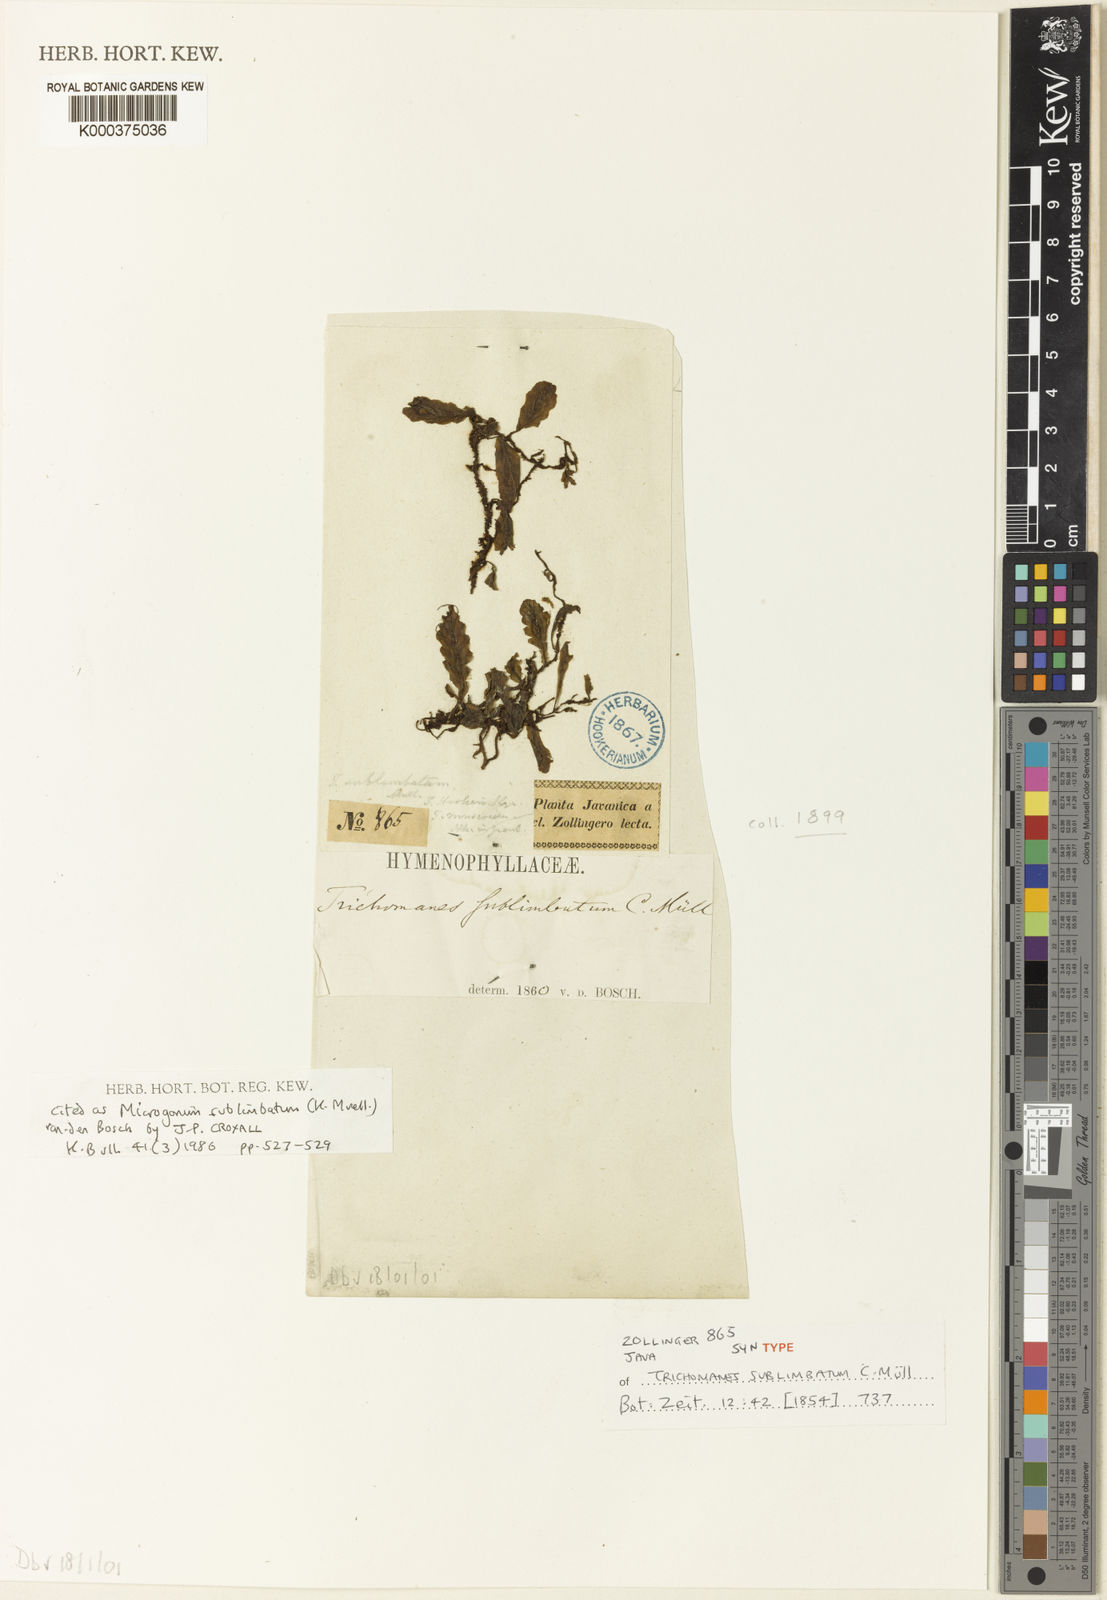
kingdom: Plantae
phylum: Tracheophyta
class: Polypodiopsida
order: Hymenophyllales
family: Hymenophyllaceae
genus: Trichomanes
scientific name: Trichomanes
